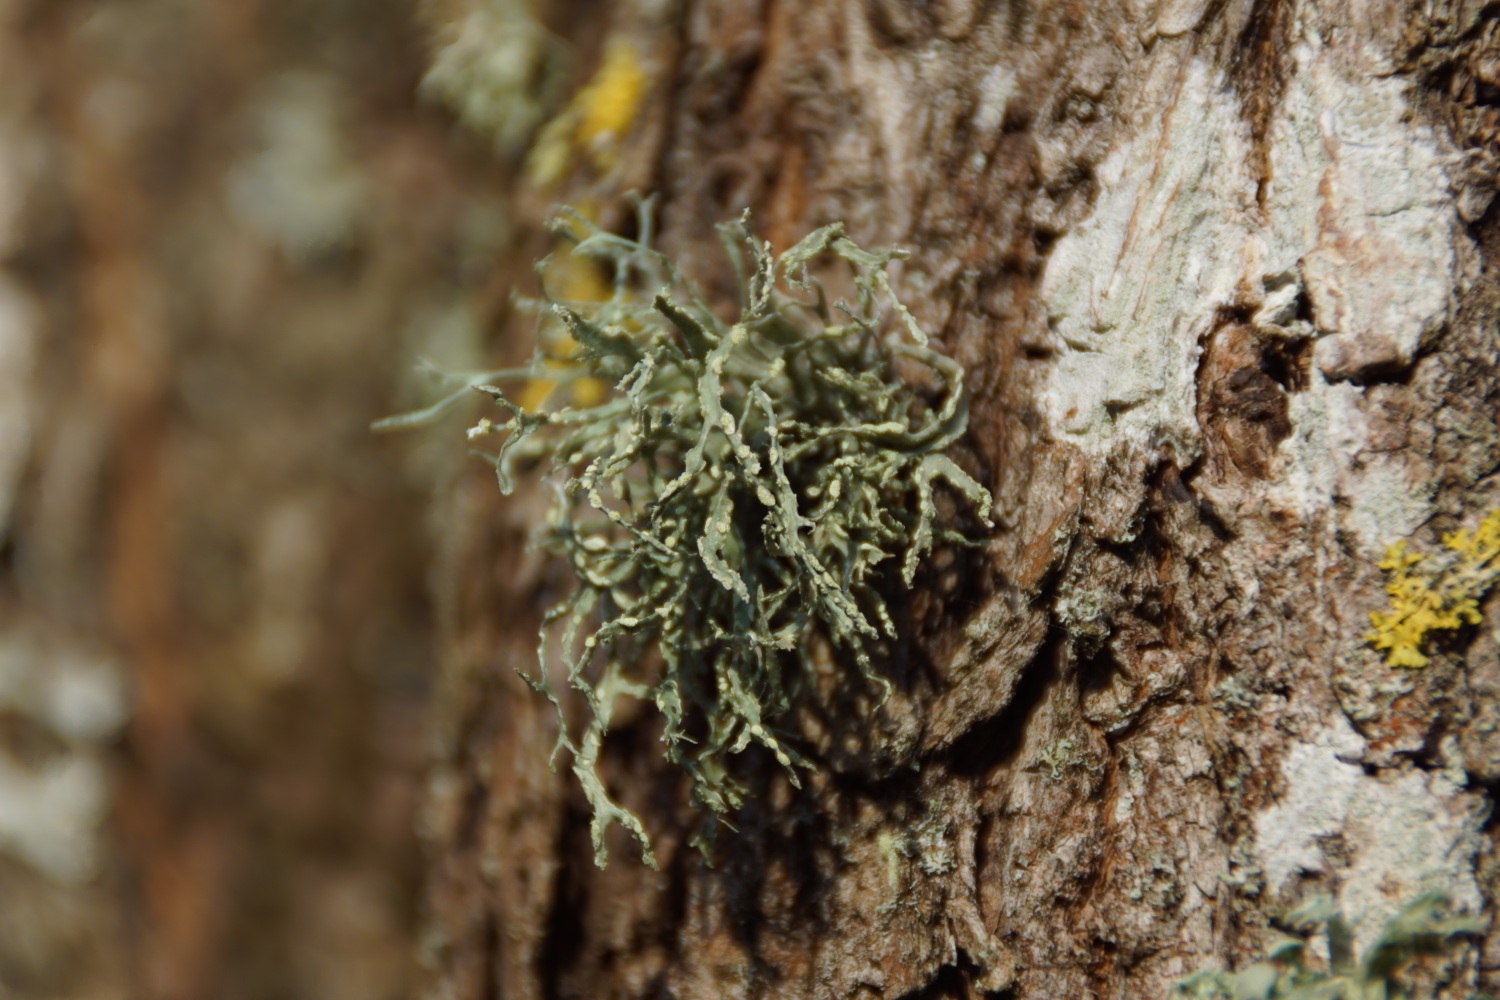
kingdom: Fungi
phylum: Ascomycota
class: Lecanoromycetes
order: Lecanorales
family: Ramalinaceae
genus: Ramalina
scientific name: Ramalina farinacea
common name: melet grenlav
